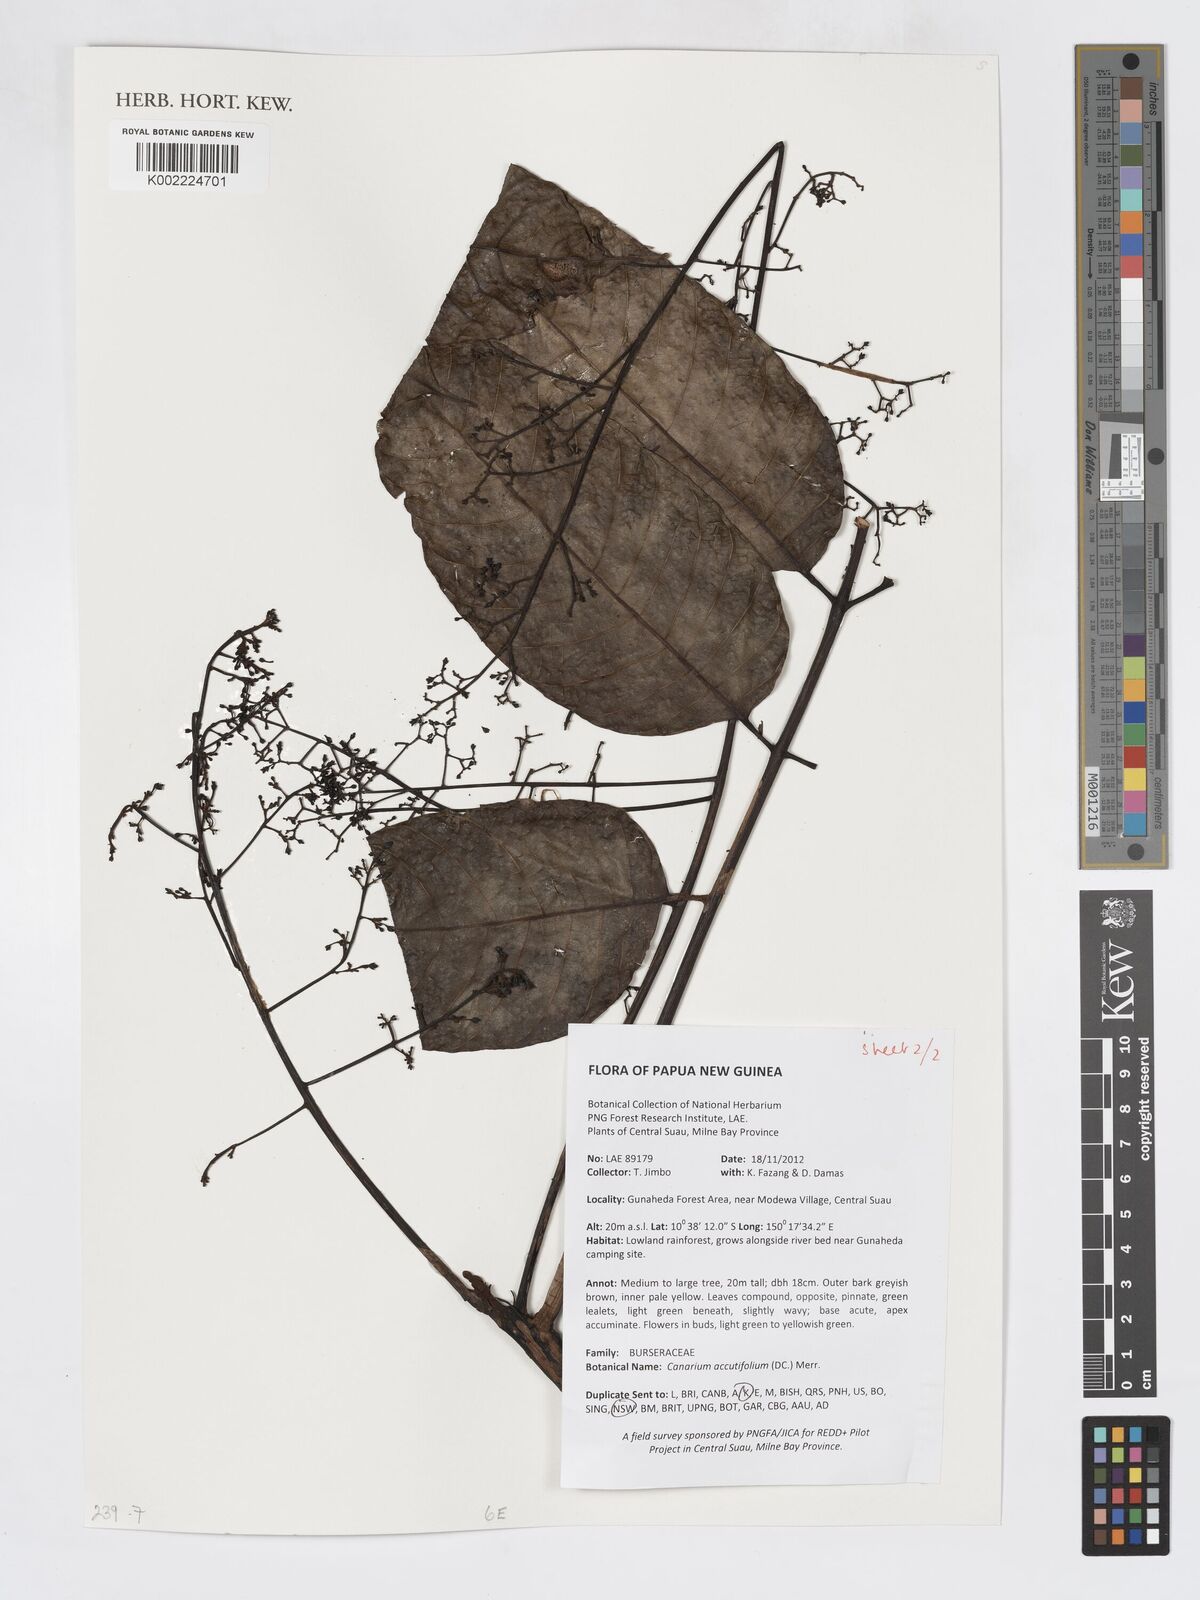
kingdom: Plantae
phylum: Tracheophyta
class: Magnoliopsida
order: Sapindales
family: Burseraceae
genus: Canarium
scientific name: Canarium acutifolium
